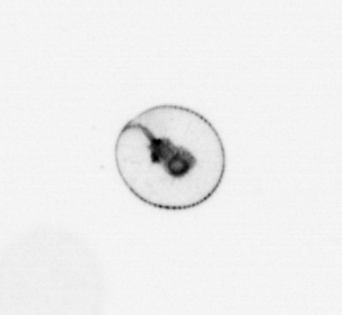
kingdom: Chromista
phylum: Myzozoa
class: Dinophyceae
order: Noctilucales
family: Noctilucaceae
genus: Noctiluca
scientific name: Noctiluca scintillans
